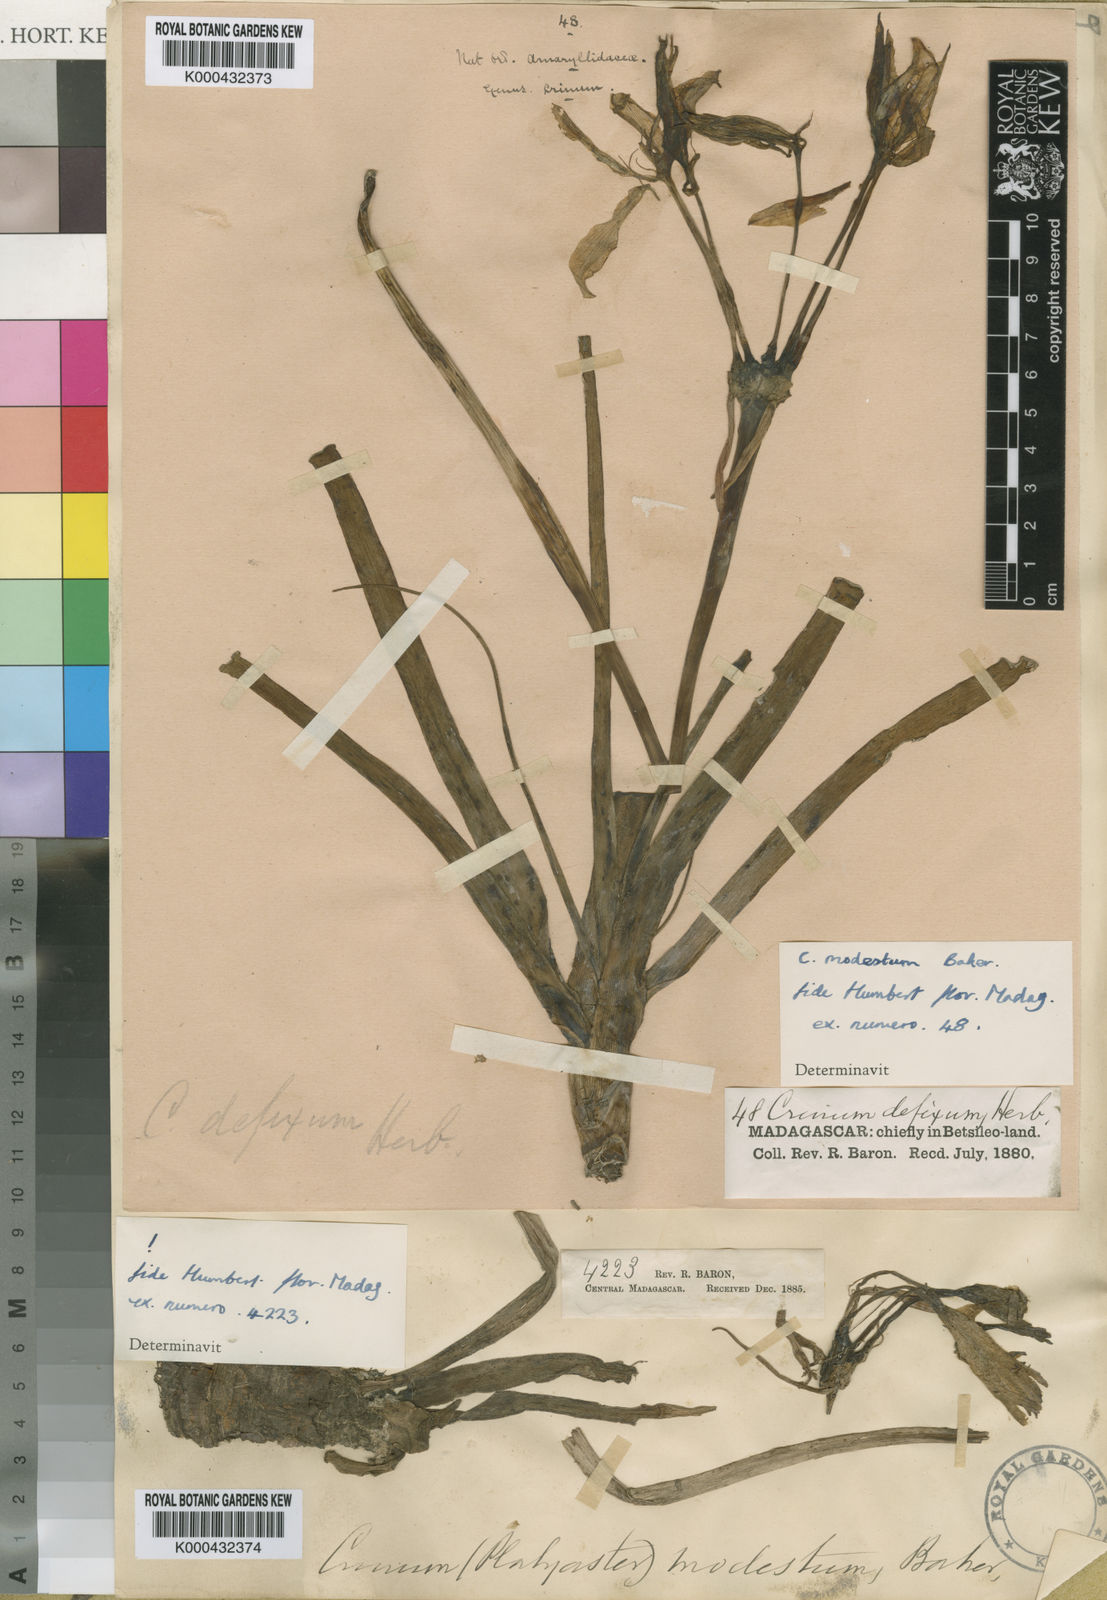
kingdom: Plantae
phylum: Tracheophyta
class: Liliopsida
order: Asparagales
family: Amaryllidaceae
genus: Crinum
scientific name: Crinum modestum
